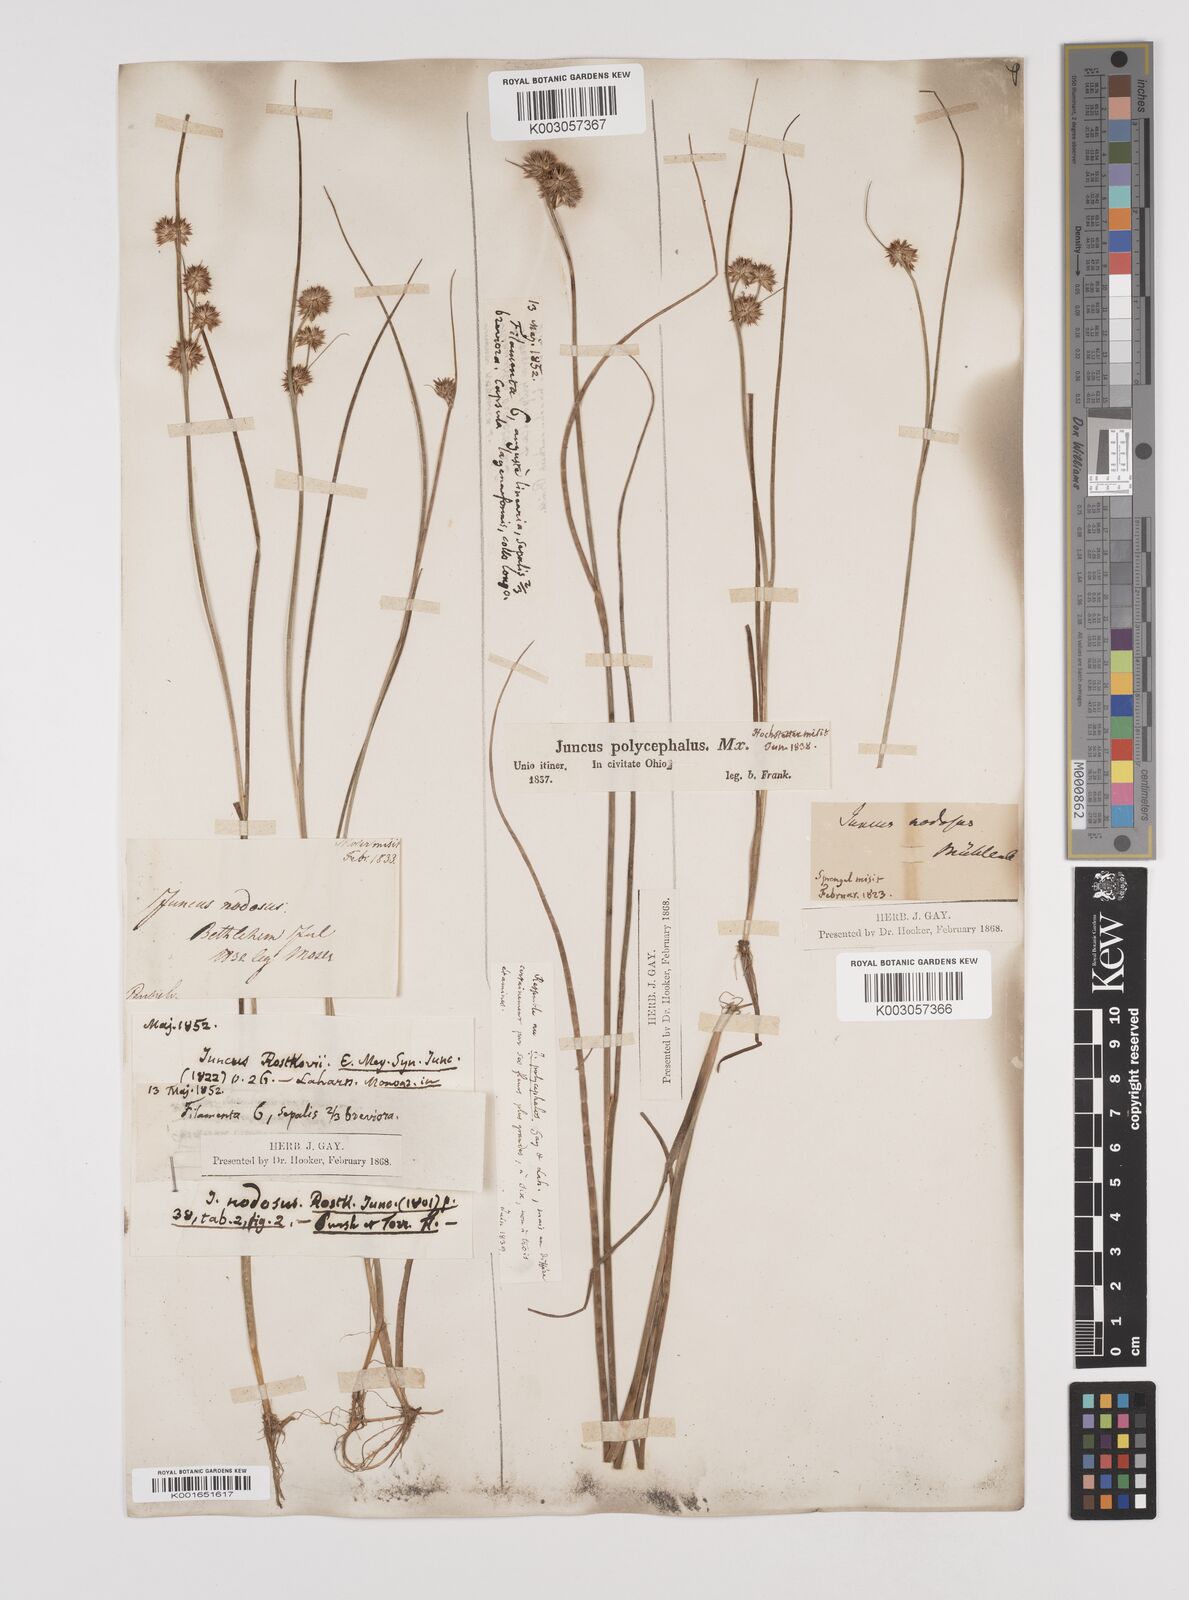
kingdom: Plantae
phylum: Tracheophyta
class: Liliopsida
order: Poales
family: Juncaceae
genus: Juncus
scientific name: Juncus nodosus
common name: Knotted rush
